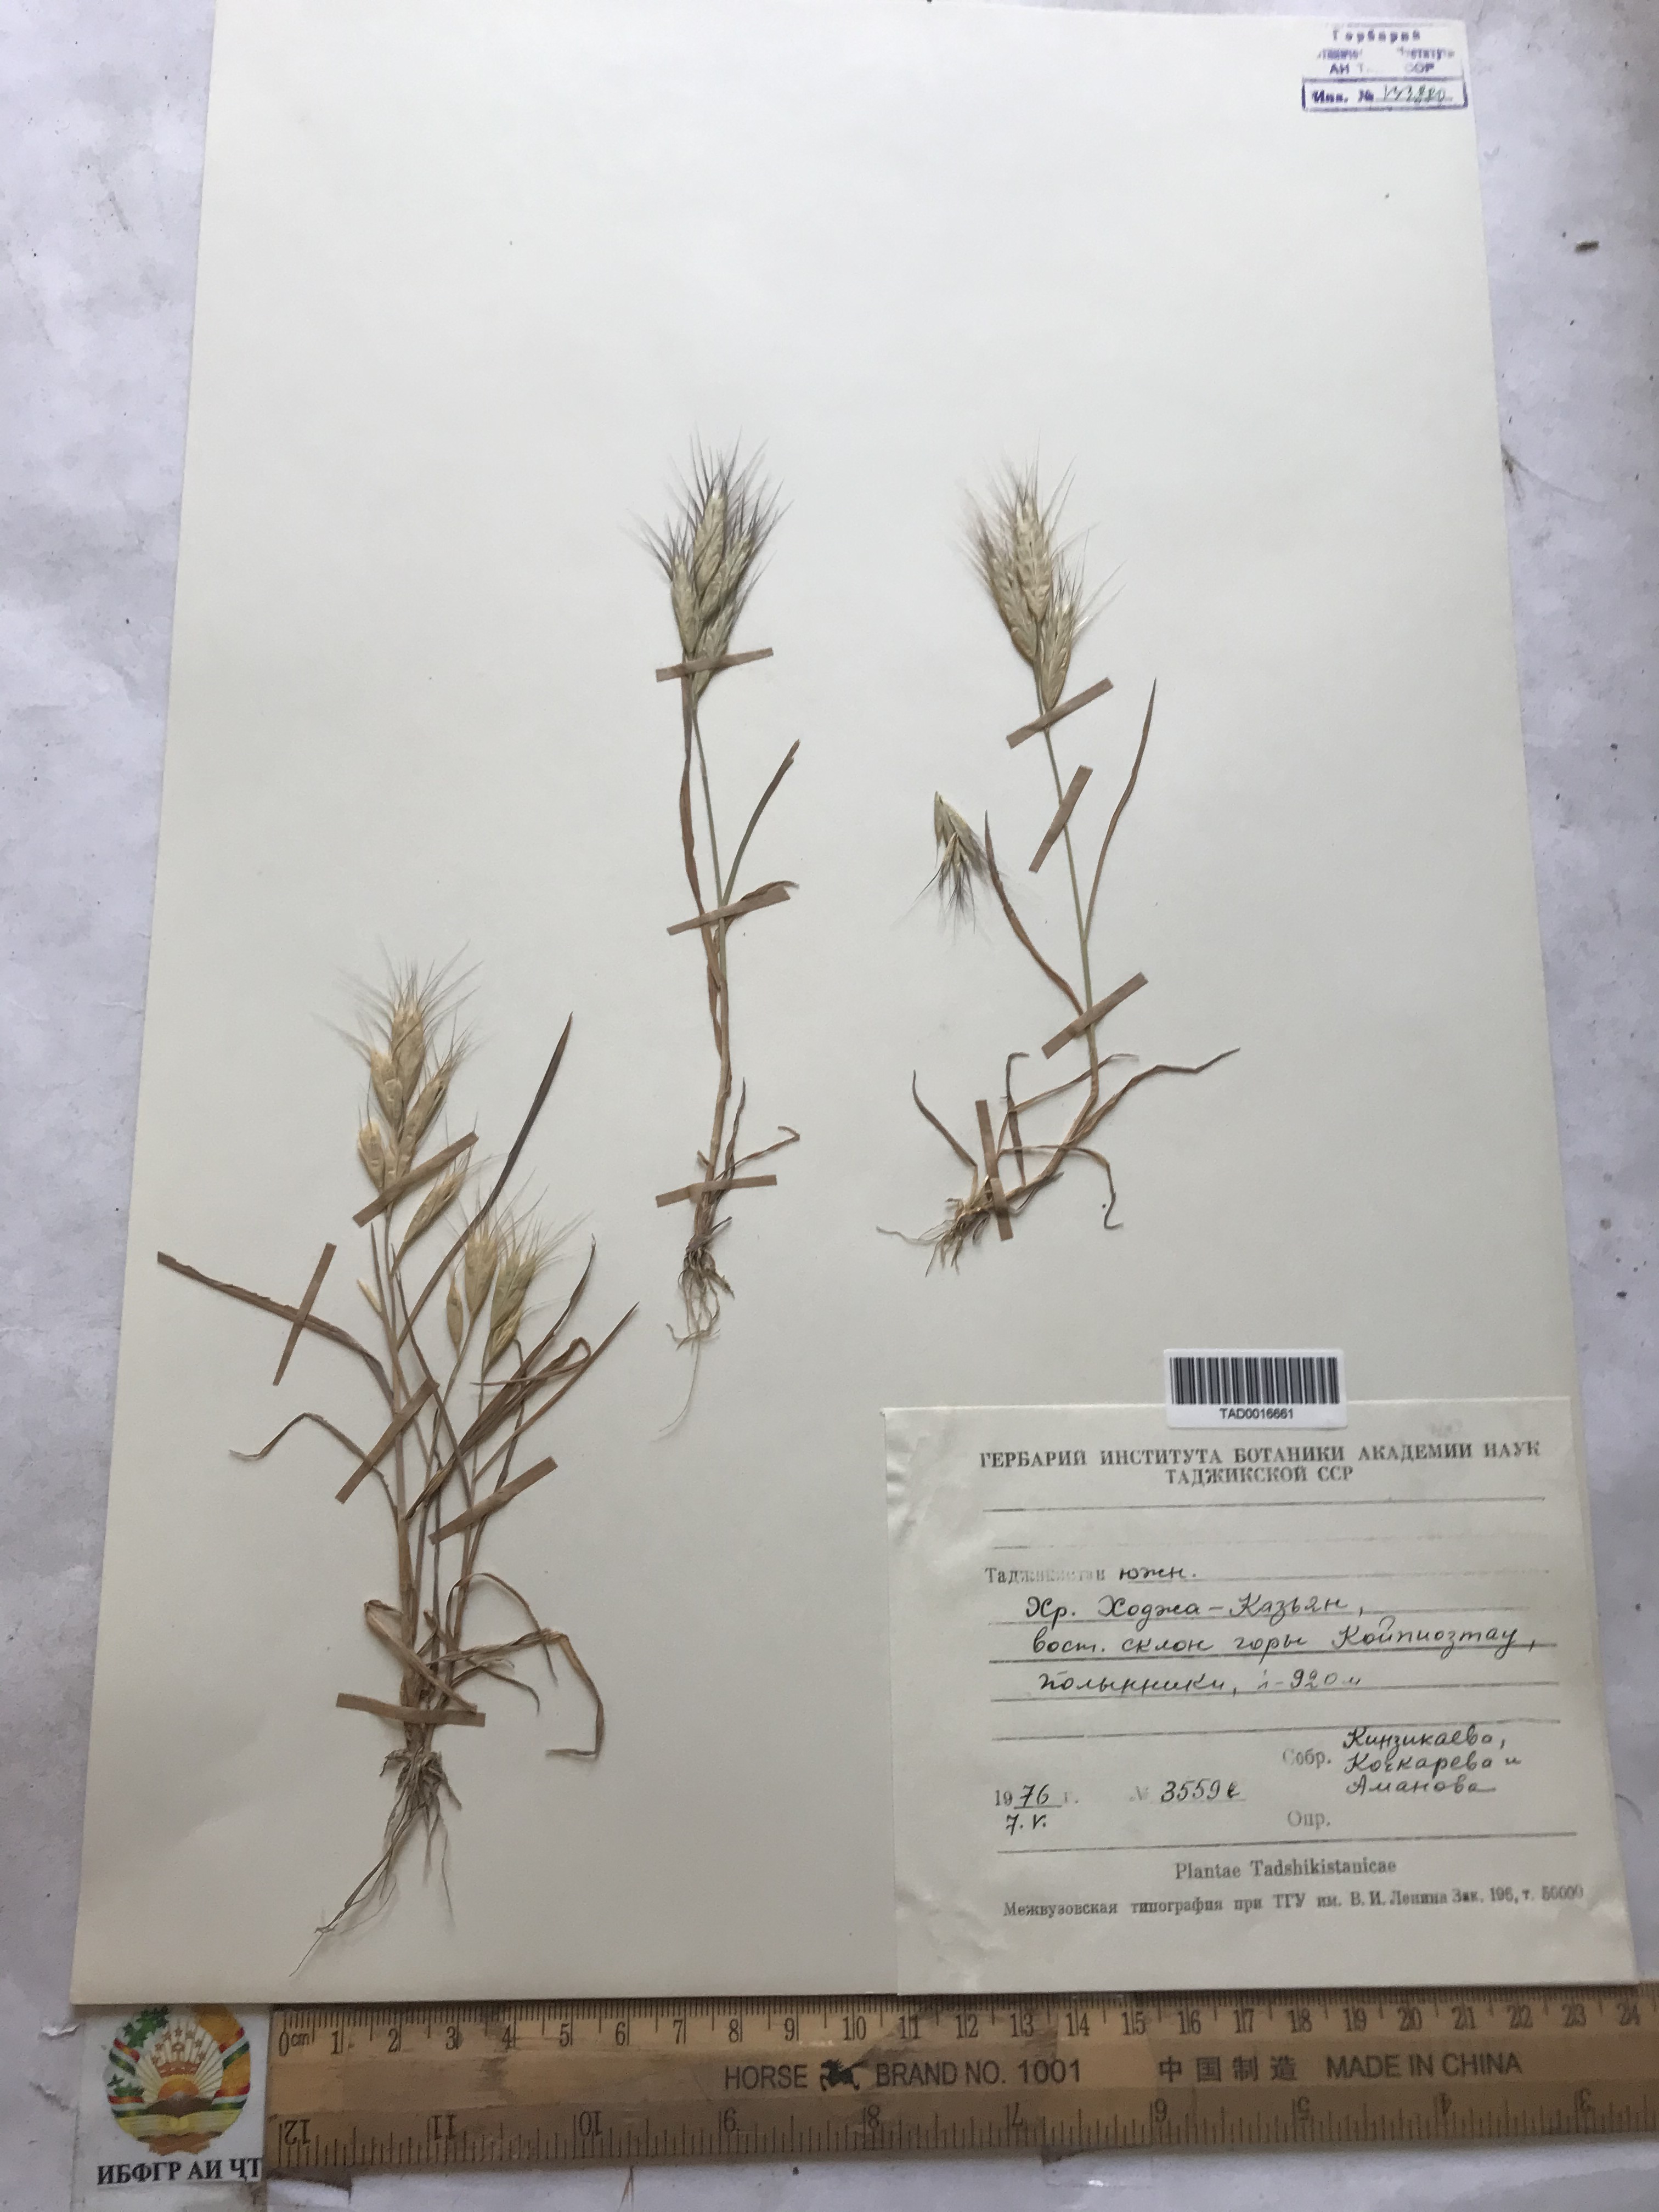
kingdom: Plantae
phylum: Tracheophyta
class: Liliopsida
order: Poales
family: Poaceae
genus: Bromus
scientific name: Bromus danthoniae
